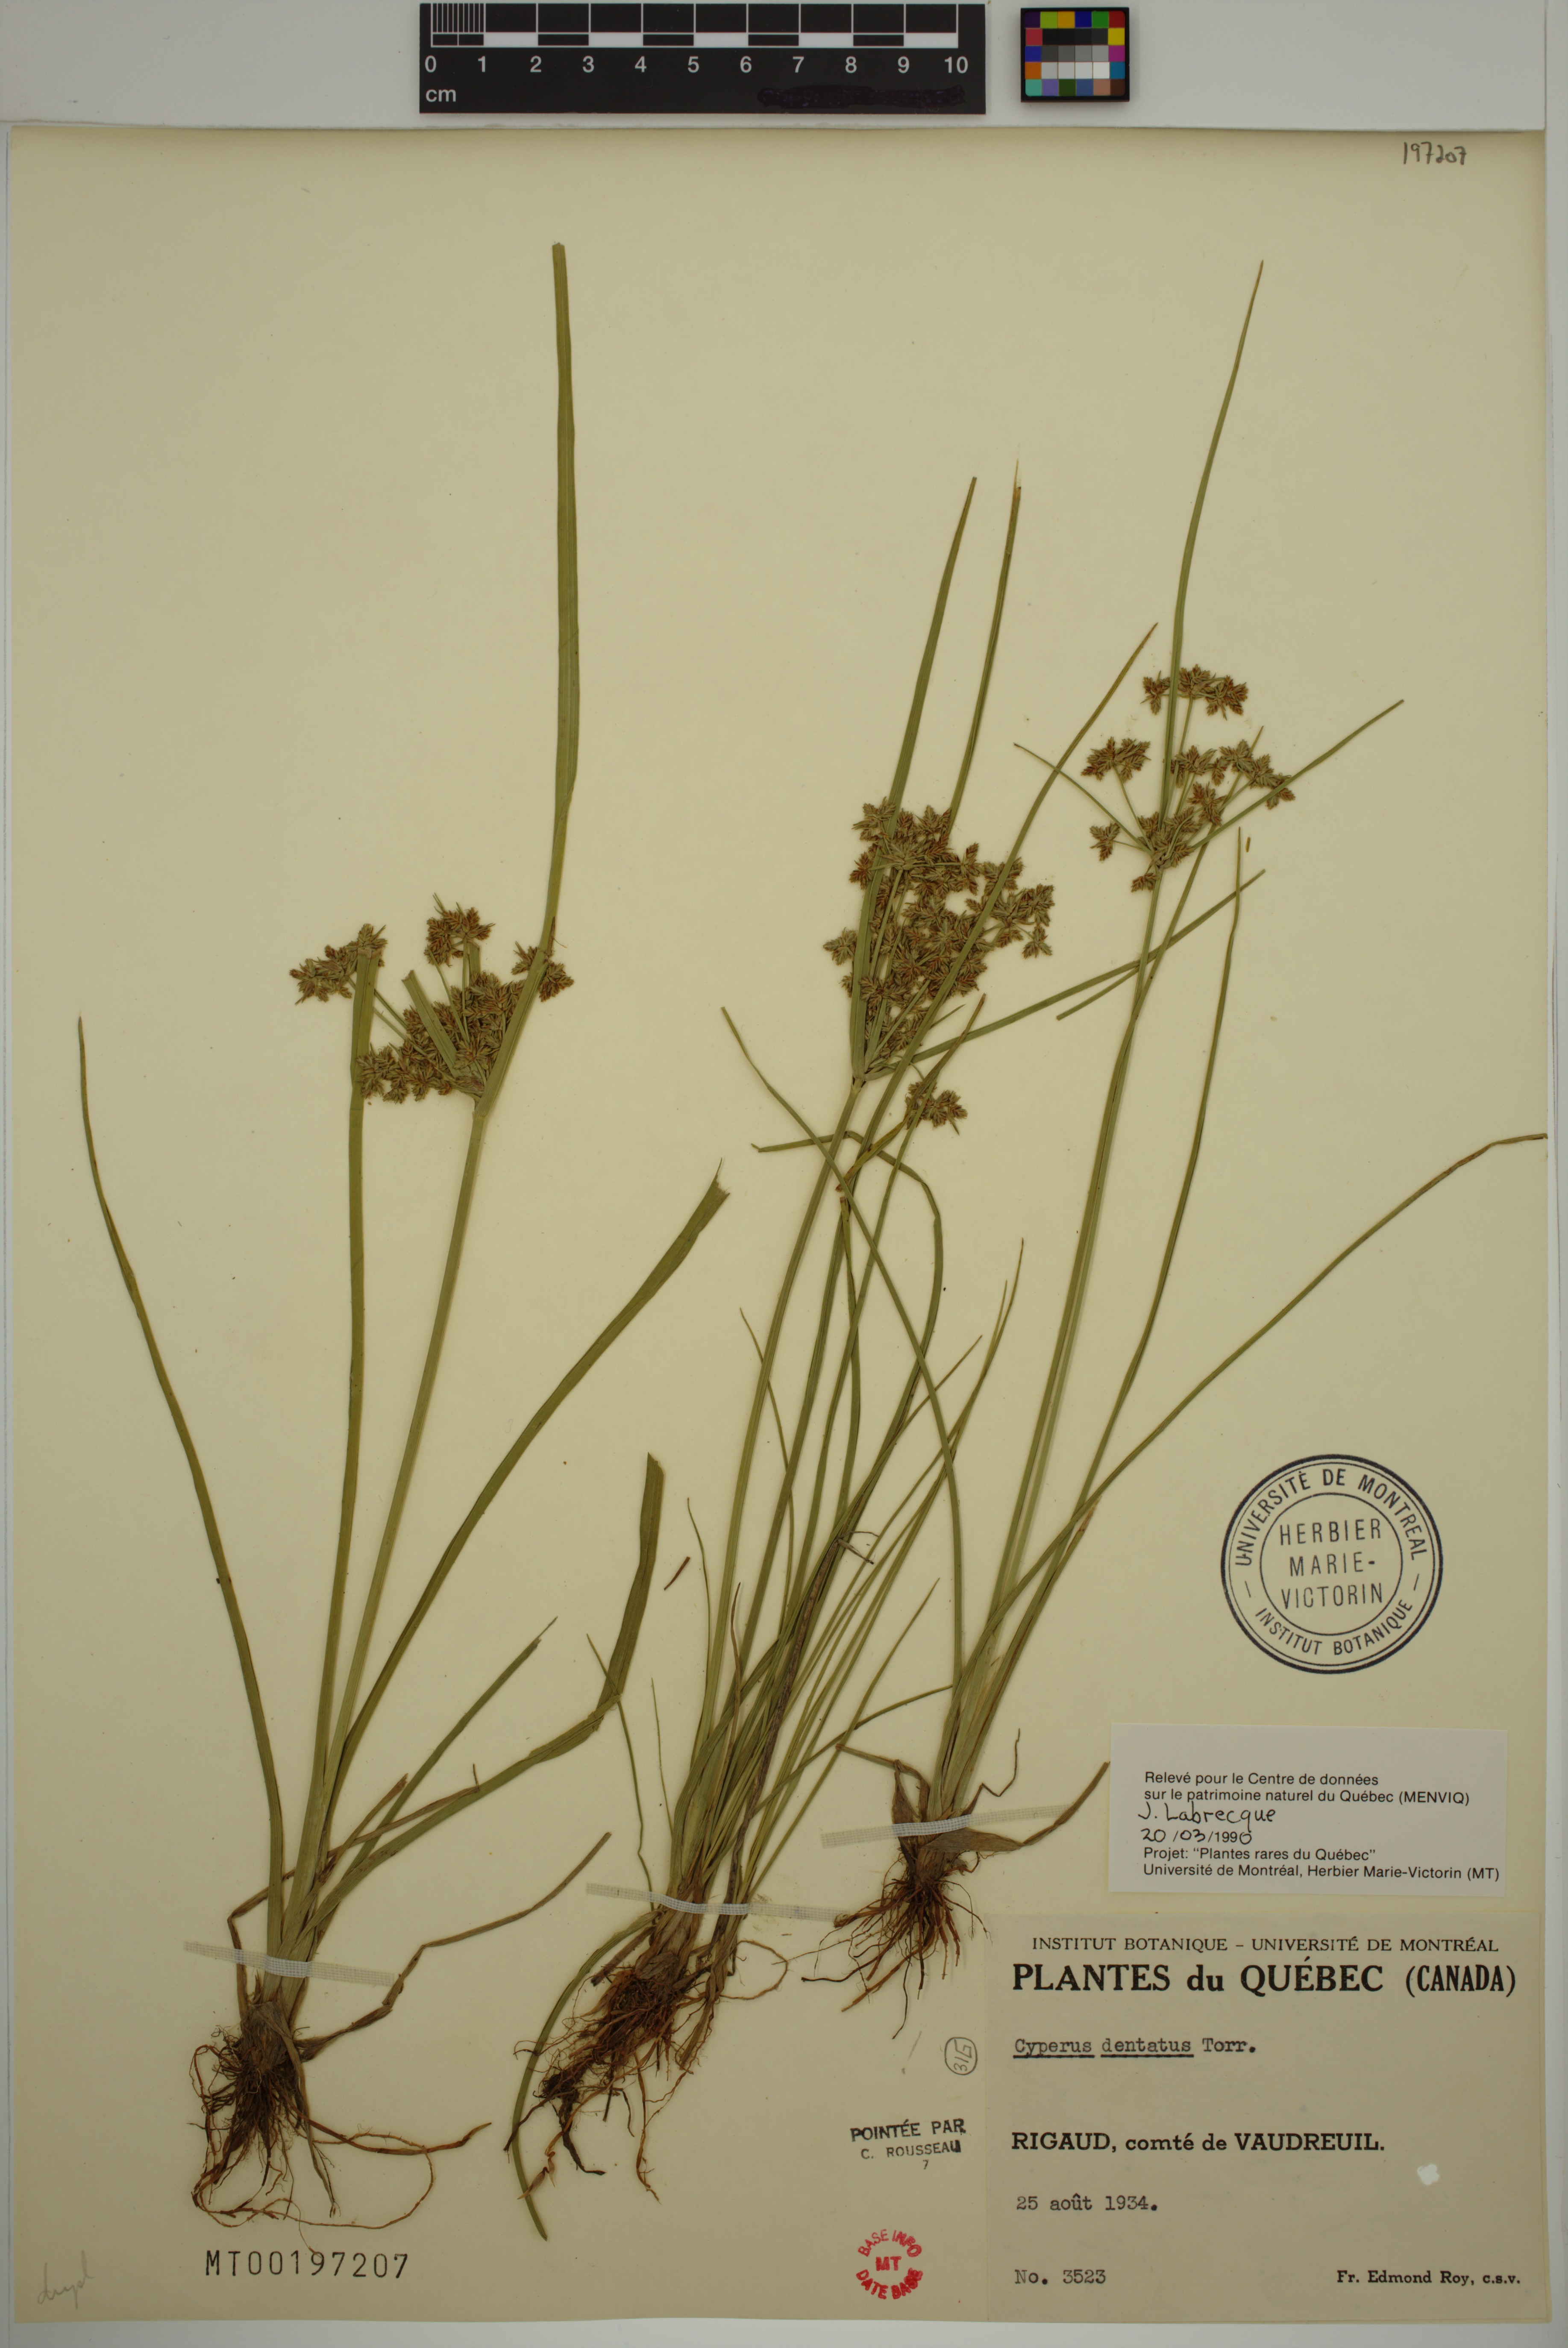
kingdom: Plantae
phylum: Tracheophyta
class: Liliopsida
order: Poales
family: Cyperaceae
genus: Cyperus
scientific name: Cyperus dentatus
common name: Dentate umbrella sedge
